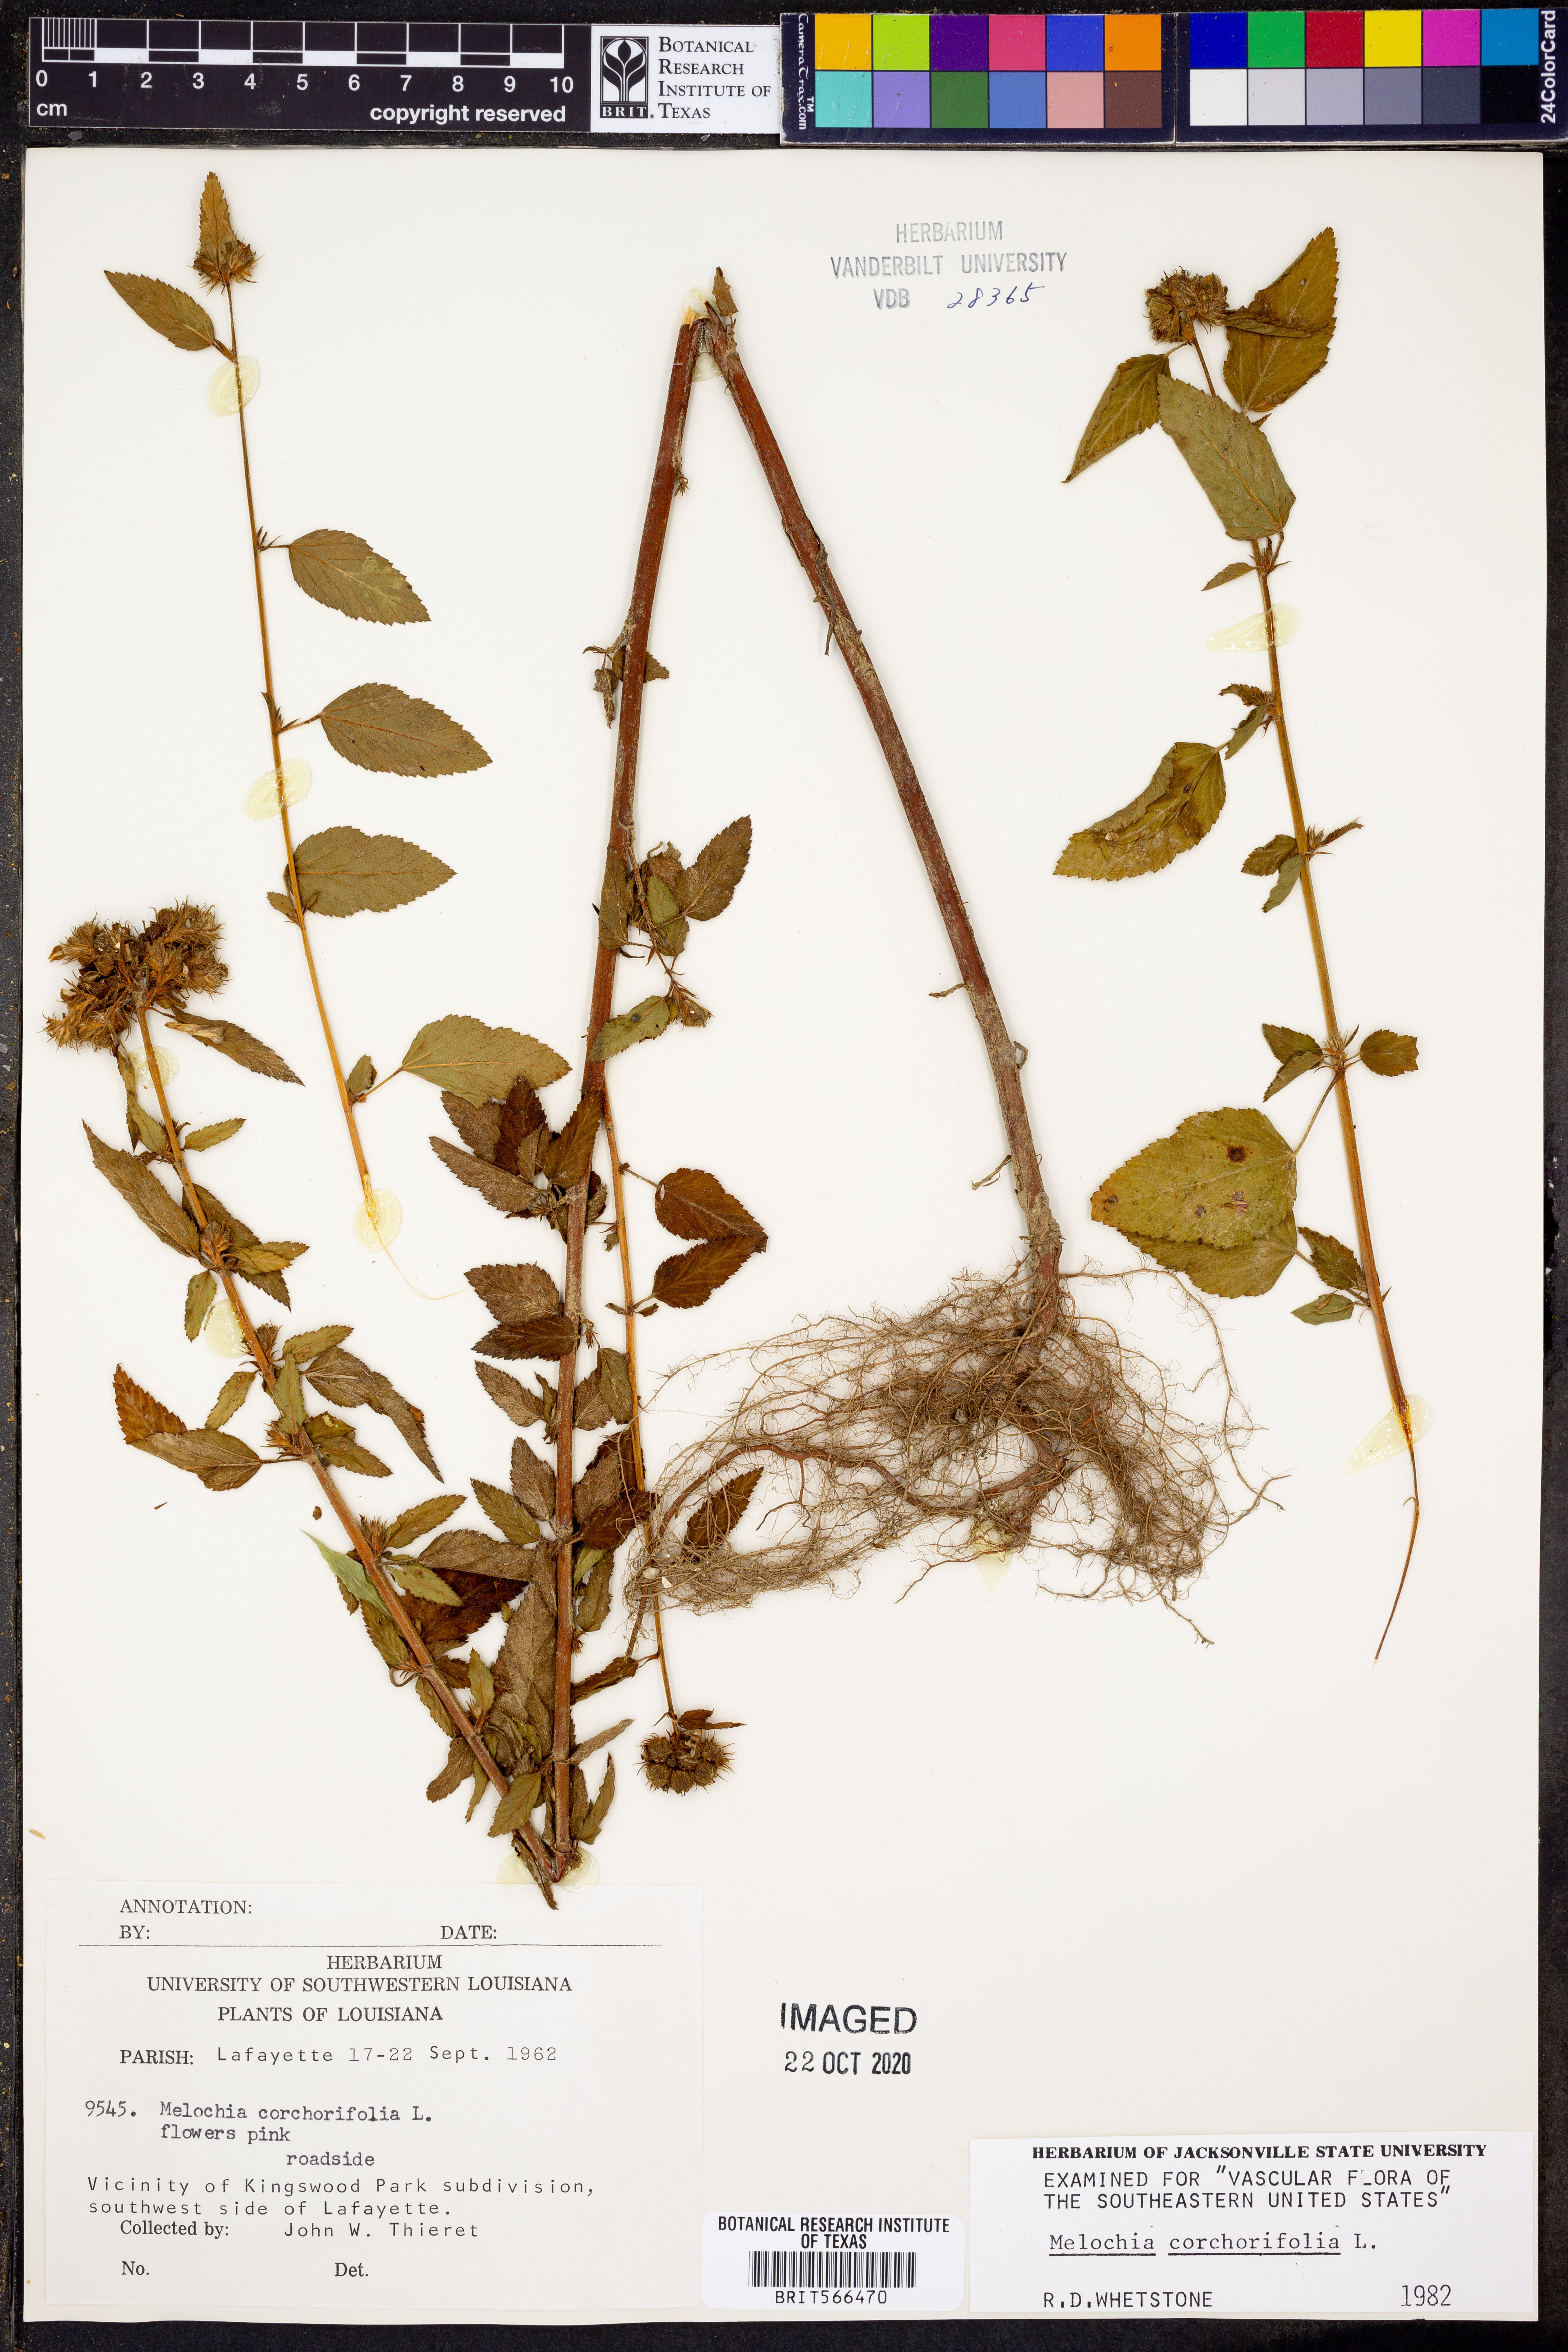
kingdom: Plantae
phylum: Tracheophyta
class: Magnoliopsida
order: Malvales
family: Malvaceae
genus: Melochia
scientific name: Melochia corchorifolia
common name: Chocolateweed
